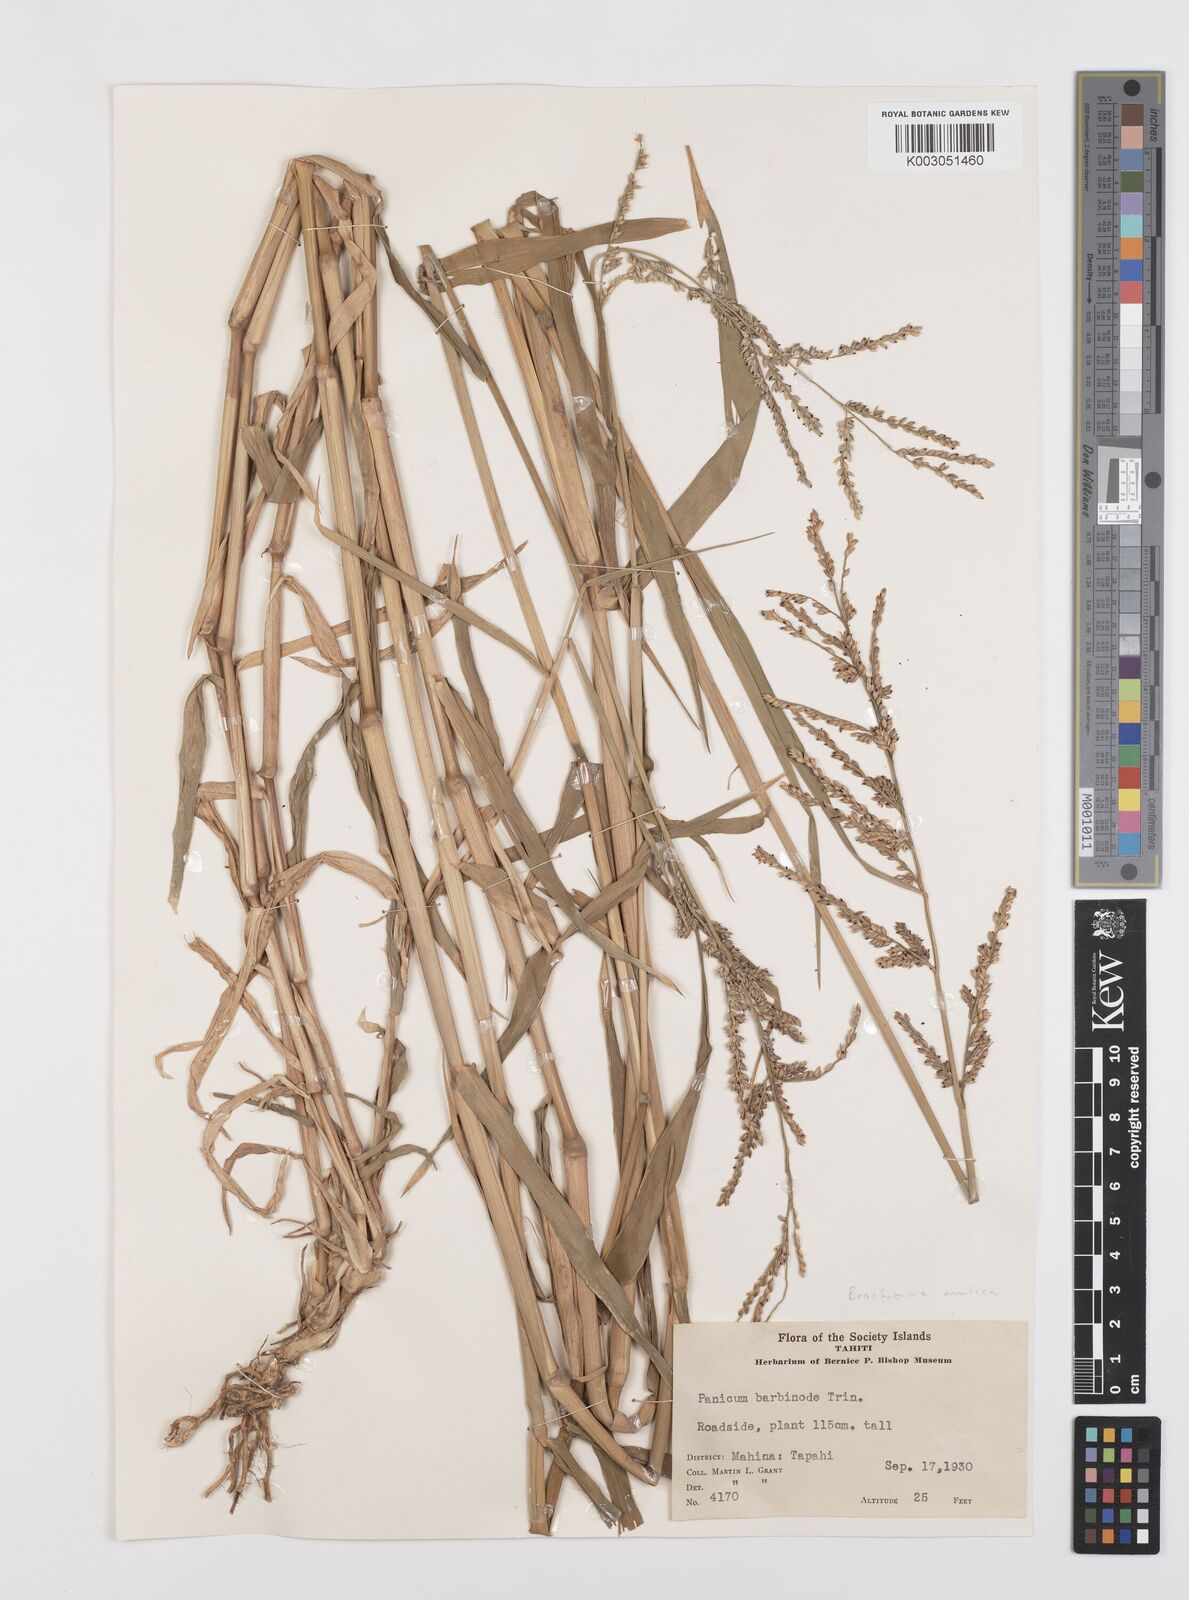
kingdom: Plantae
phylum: Tracheophyta
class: Liliopsida
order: Poales
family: Poaceae
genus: Urochloa
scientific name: Urochloa mutica
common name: Para grass
